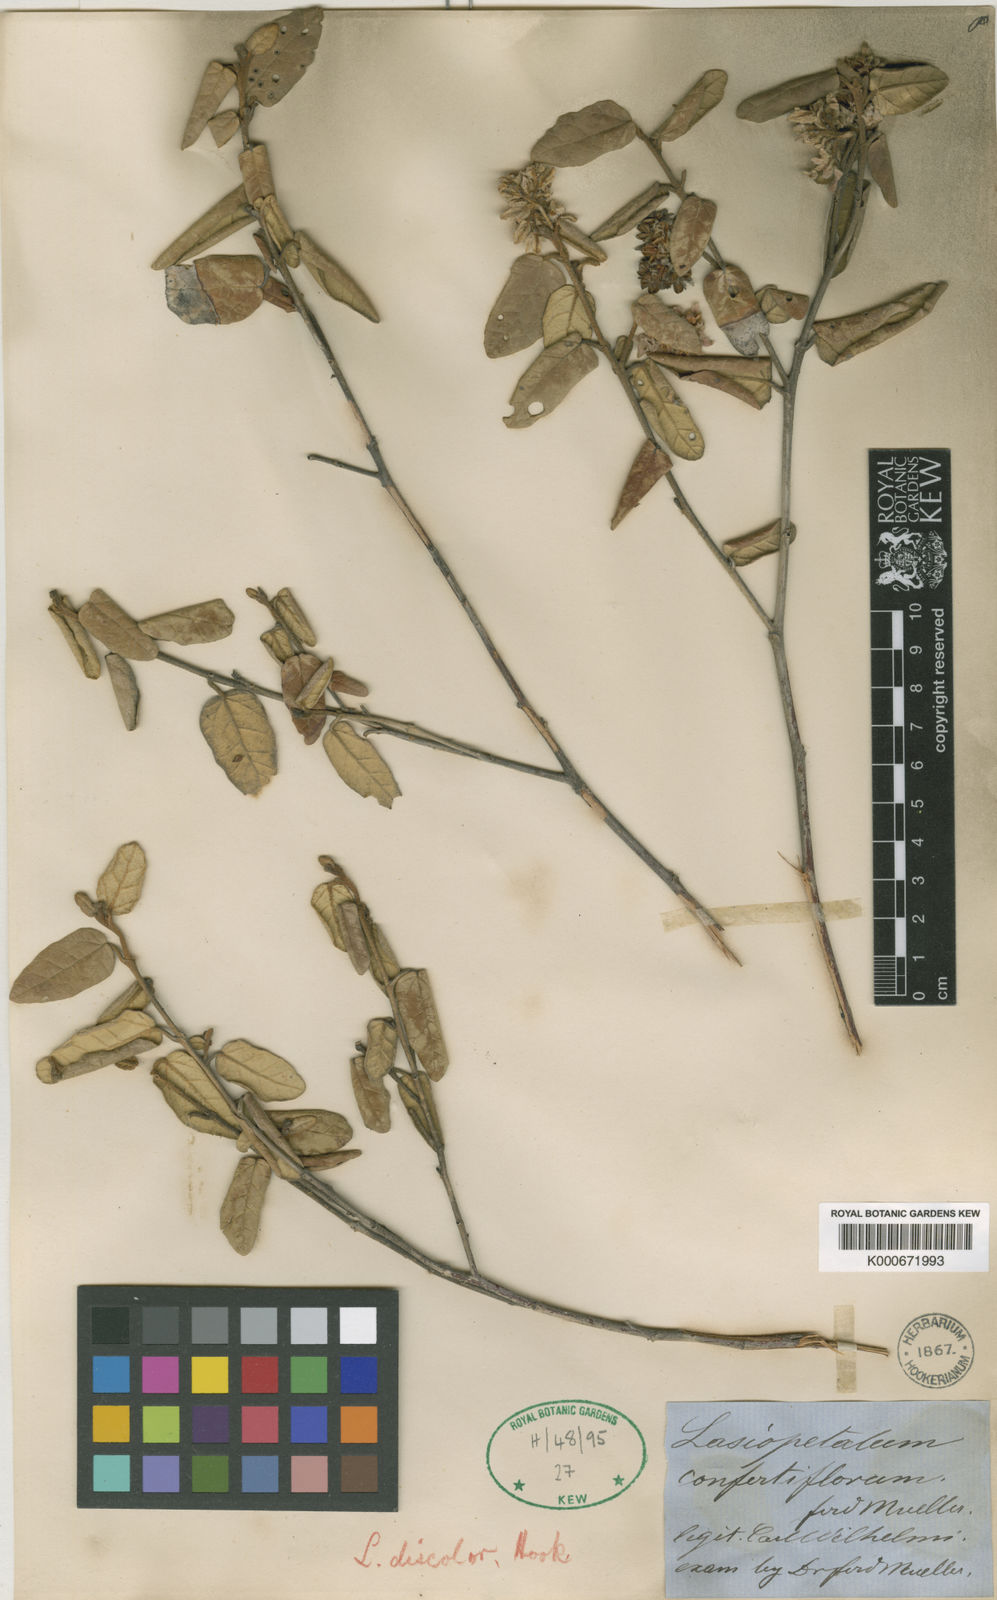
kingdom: Plantae
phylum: Tracheophyta
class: Magnoliopsida
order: Malvales
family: Malvaceae
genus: Lasiopetalum
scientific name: Lasiopetalum discolor
